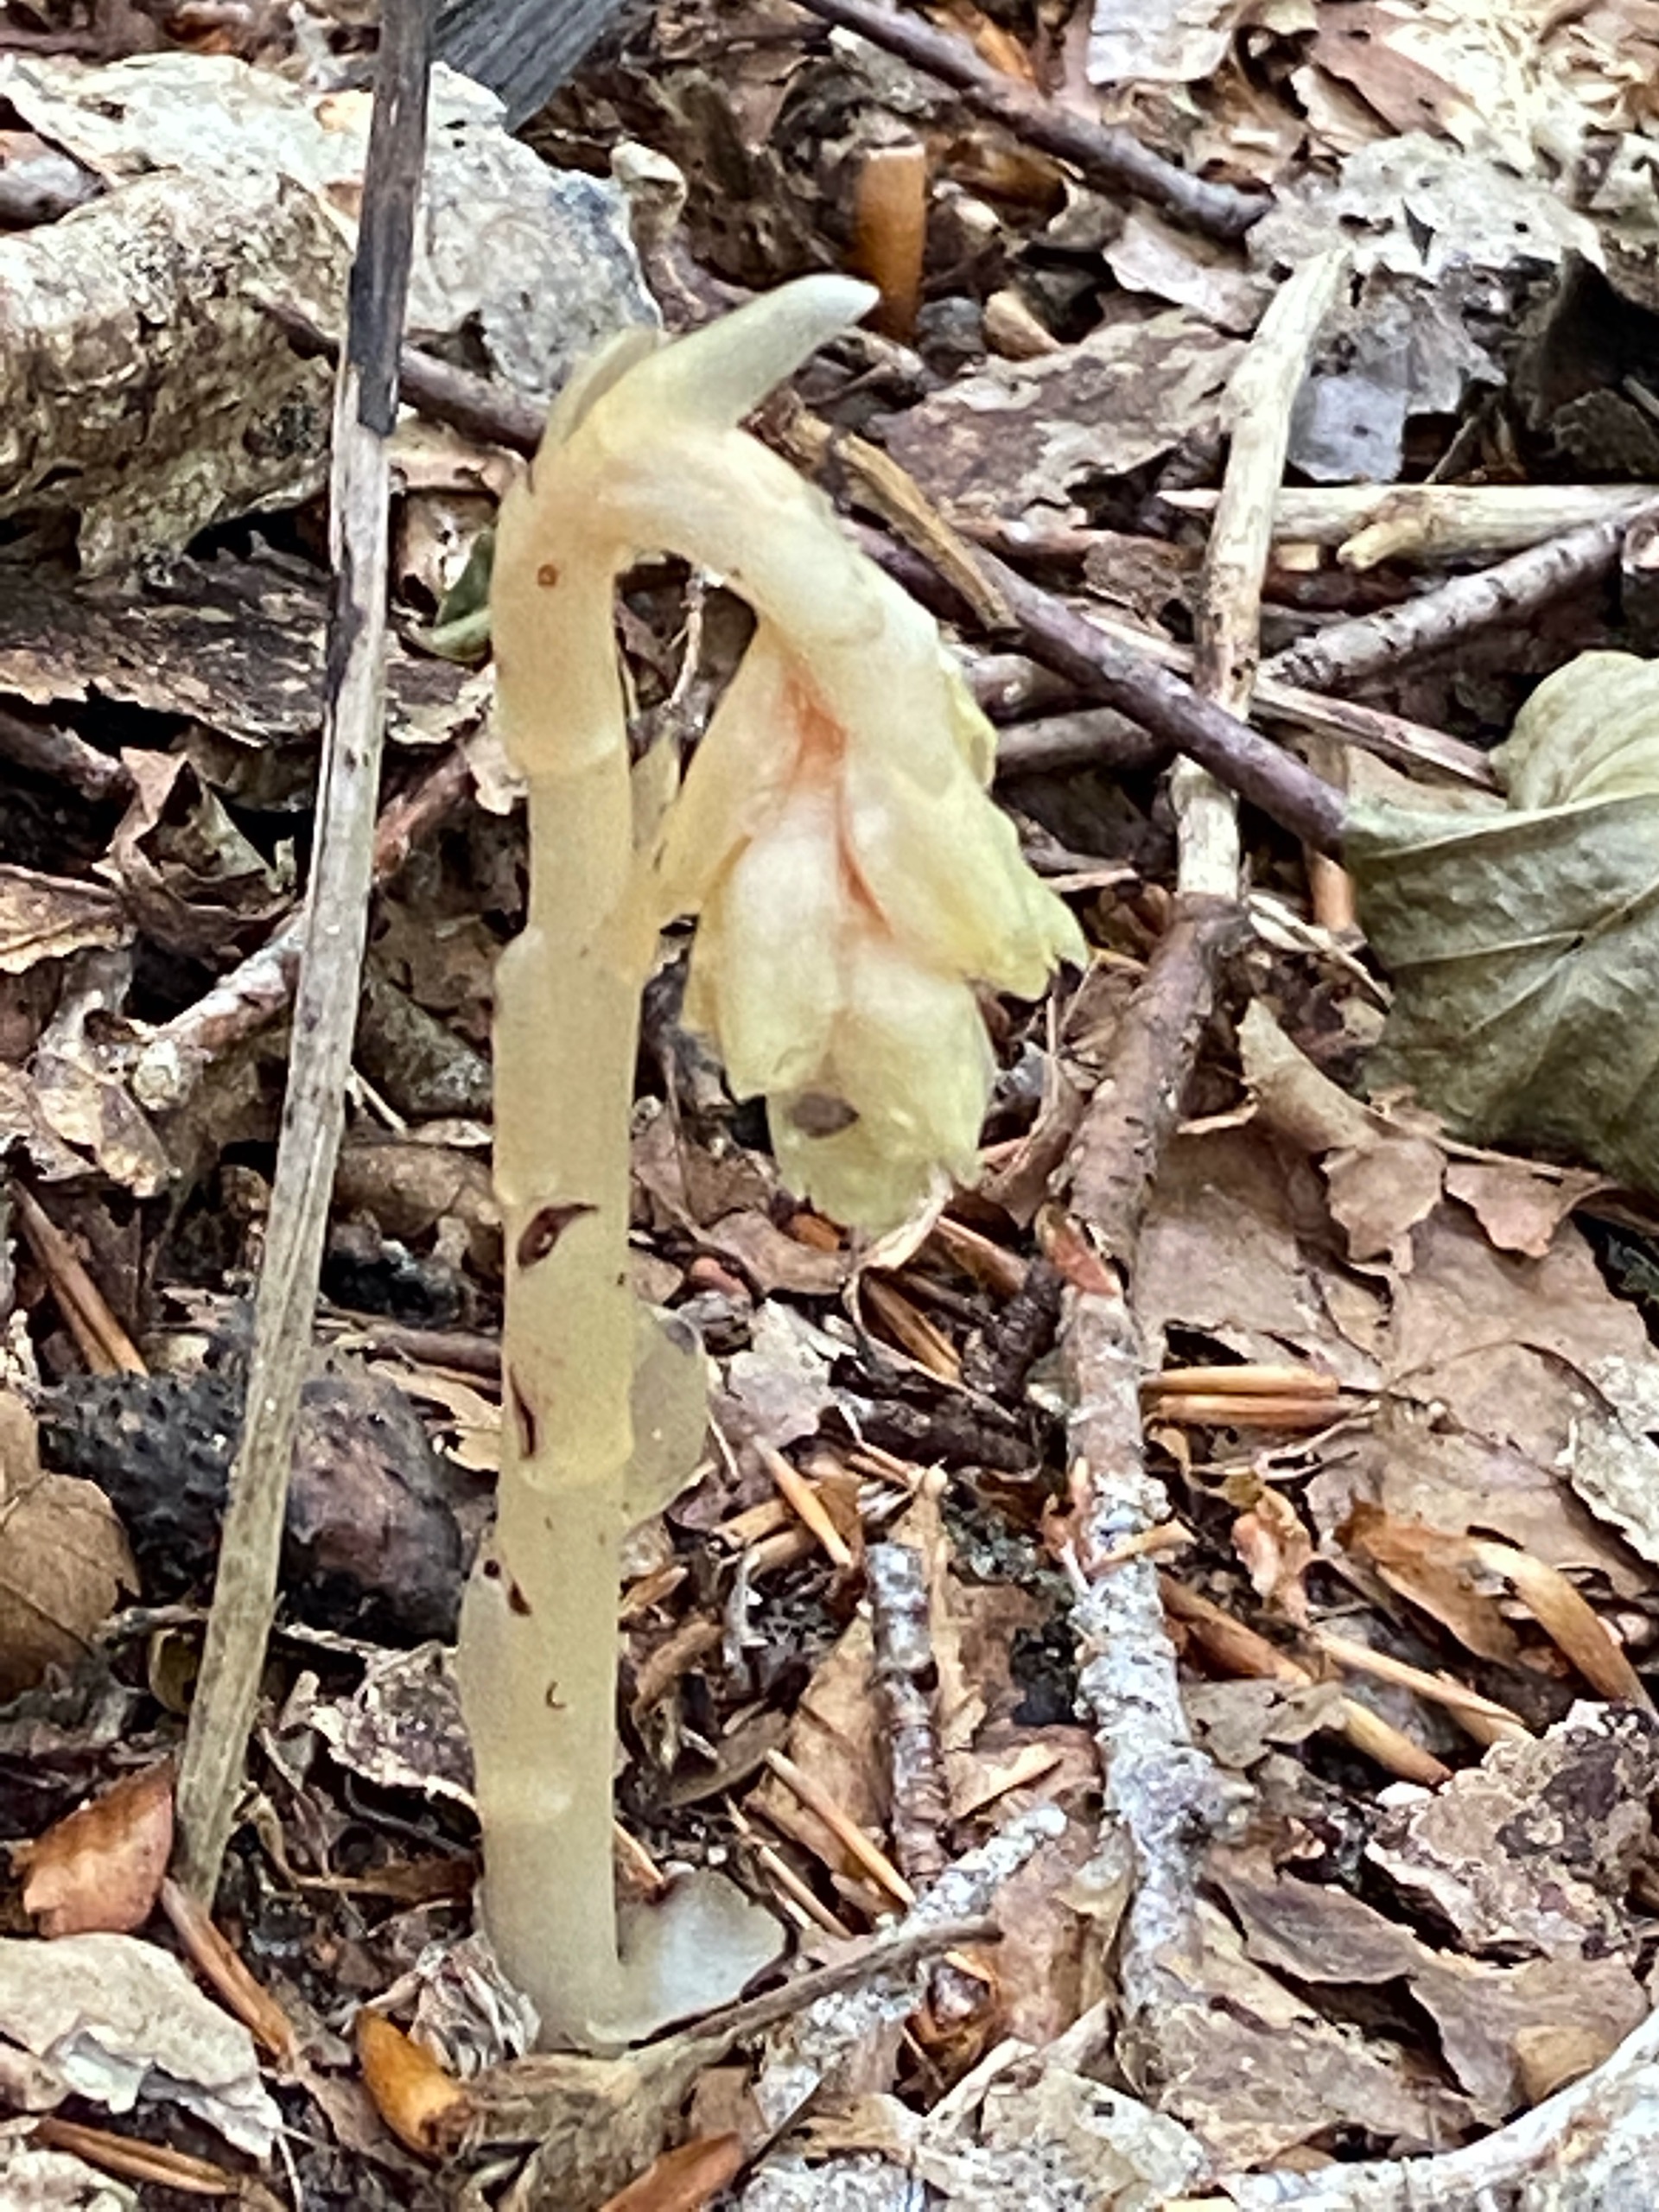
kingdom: Plantae
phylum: Tracheophyta
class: Magnoliopsida
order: Ericales
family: Ericaceae
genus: Hypopitys
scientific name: Hypopitys monotropa
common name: Håret snylterod
